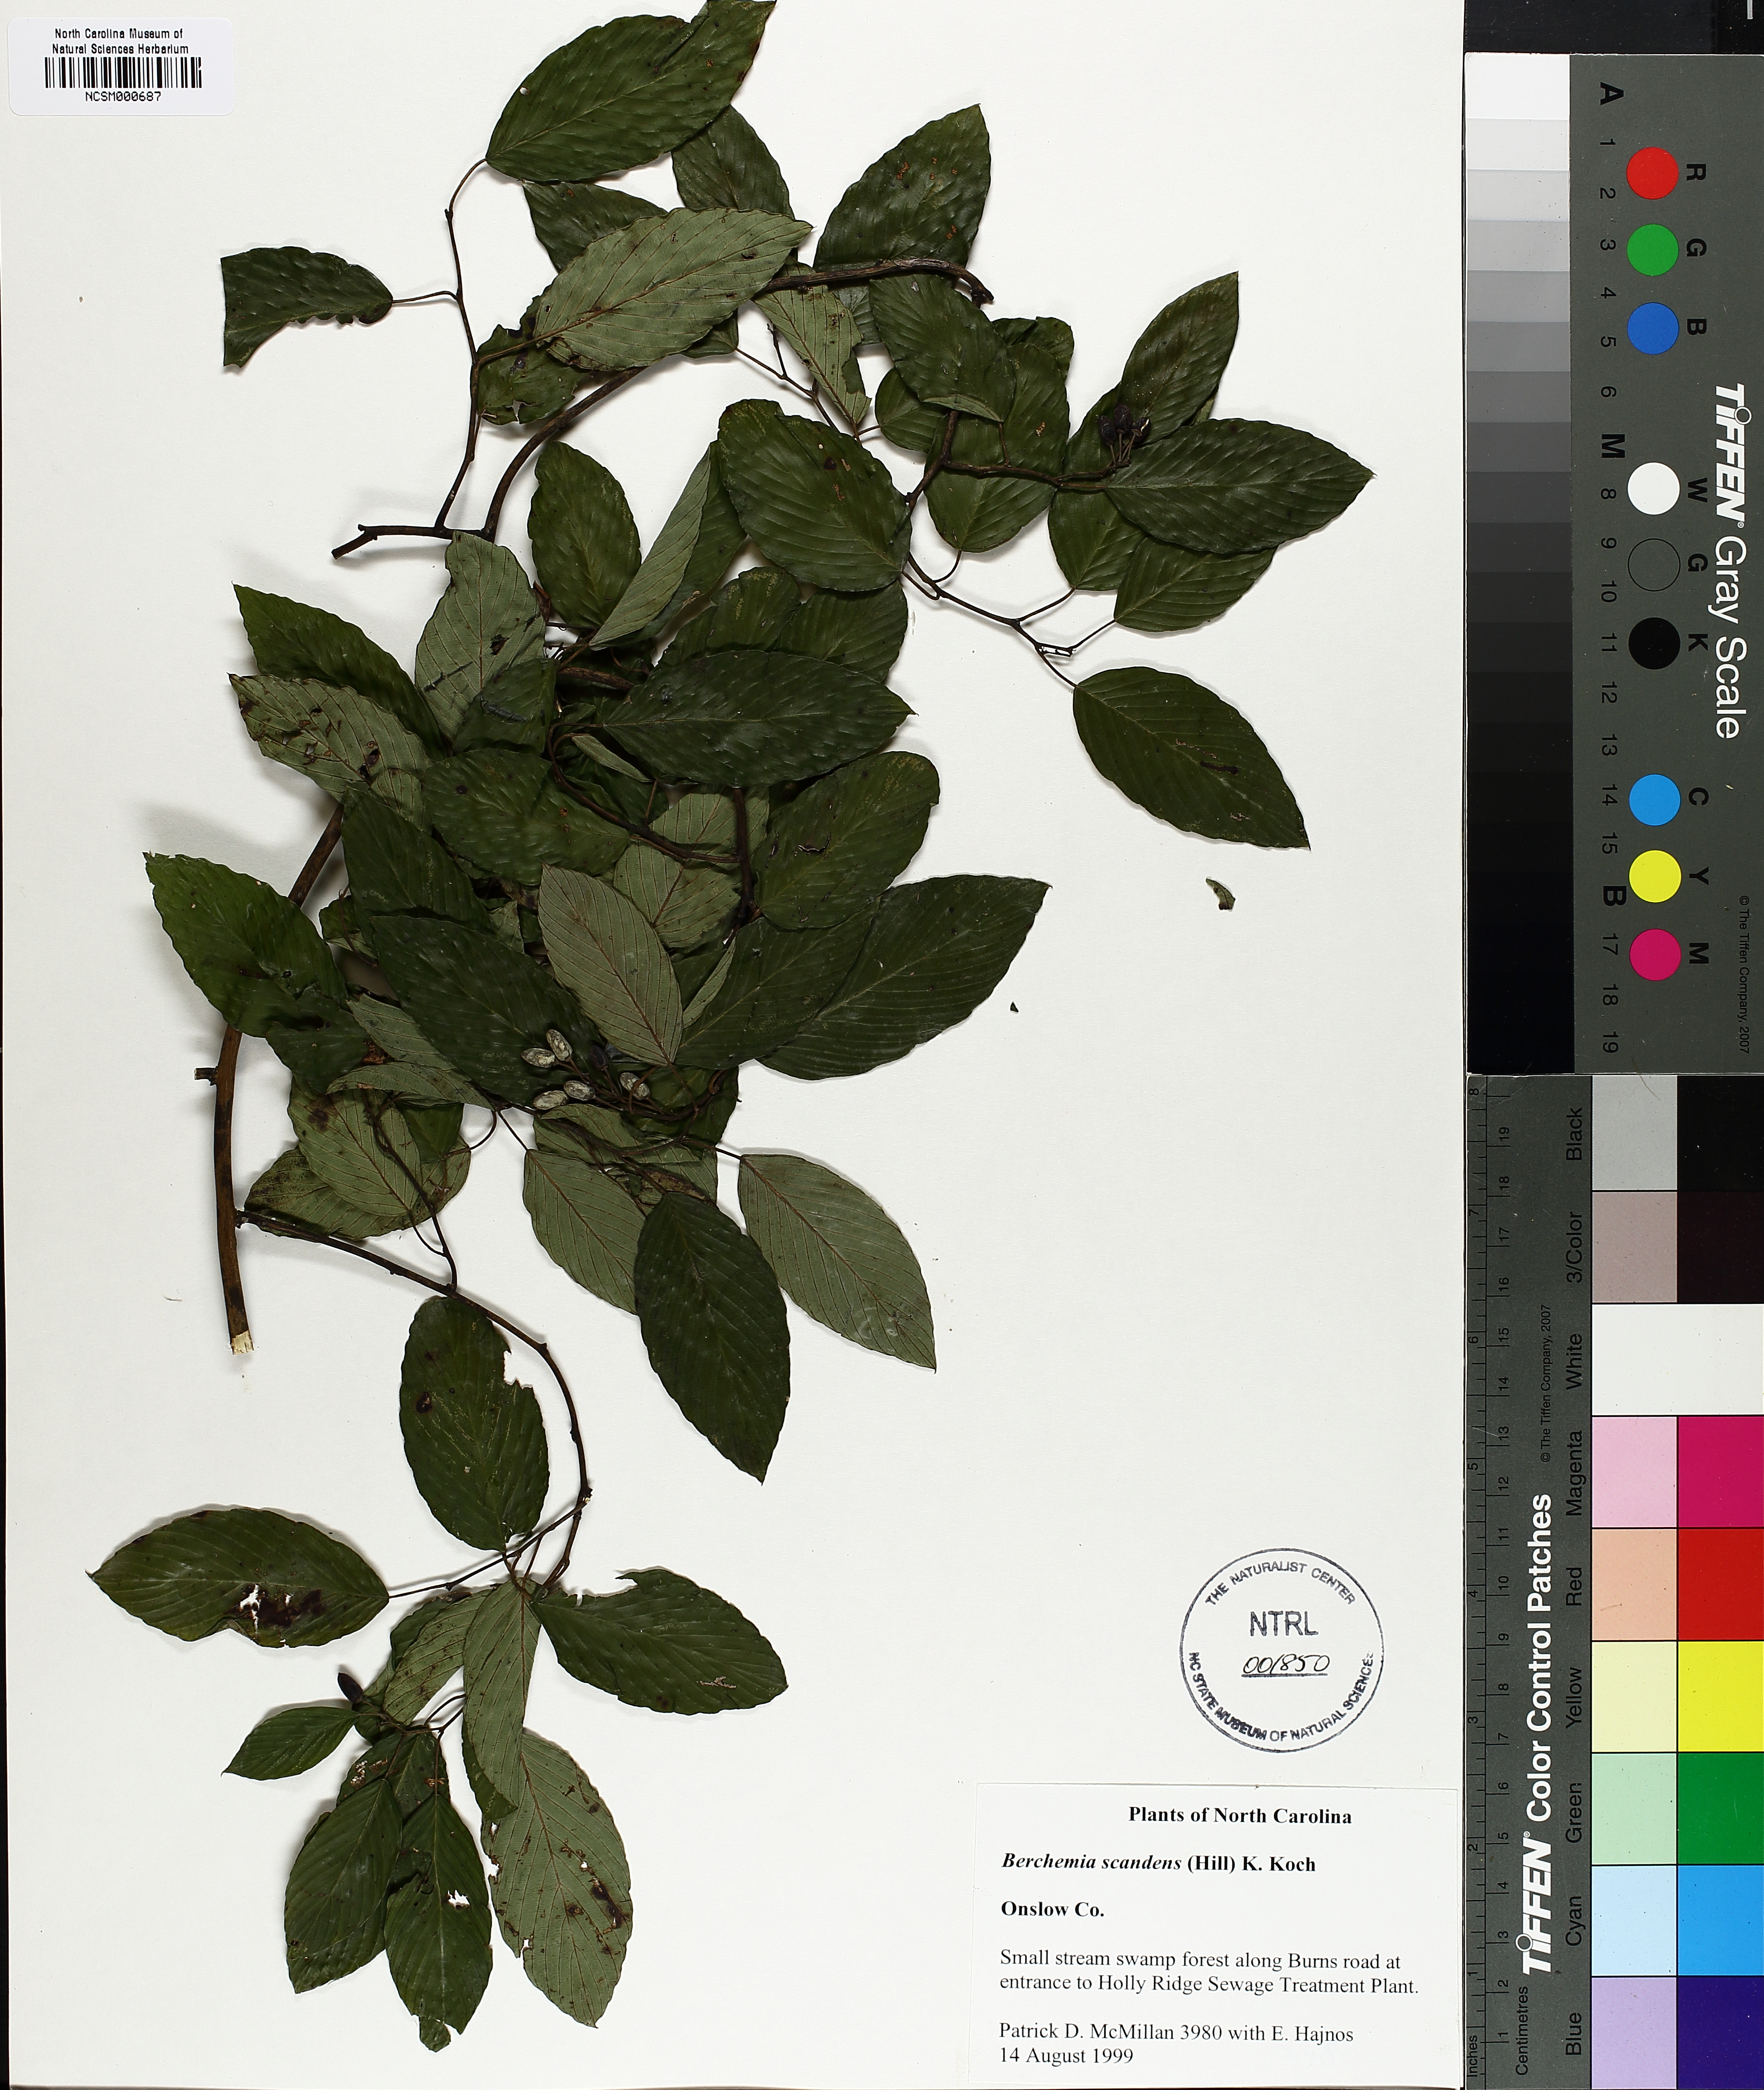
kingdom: Plantae
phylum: Tracheophyta
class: Magnoliopsida
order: Rosales
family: Rhamnaceae
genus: Berchemia
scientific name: Berchemia scandens
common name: Supplejack
